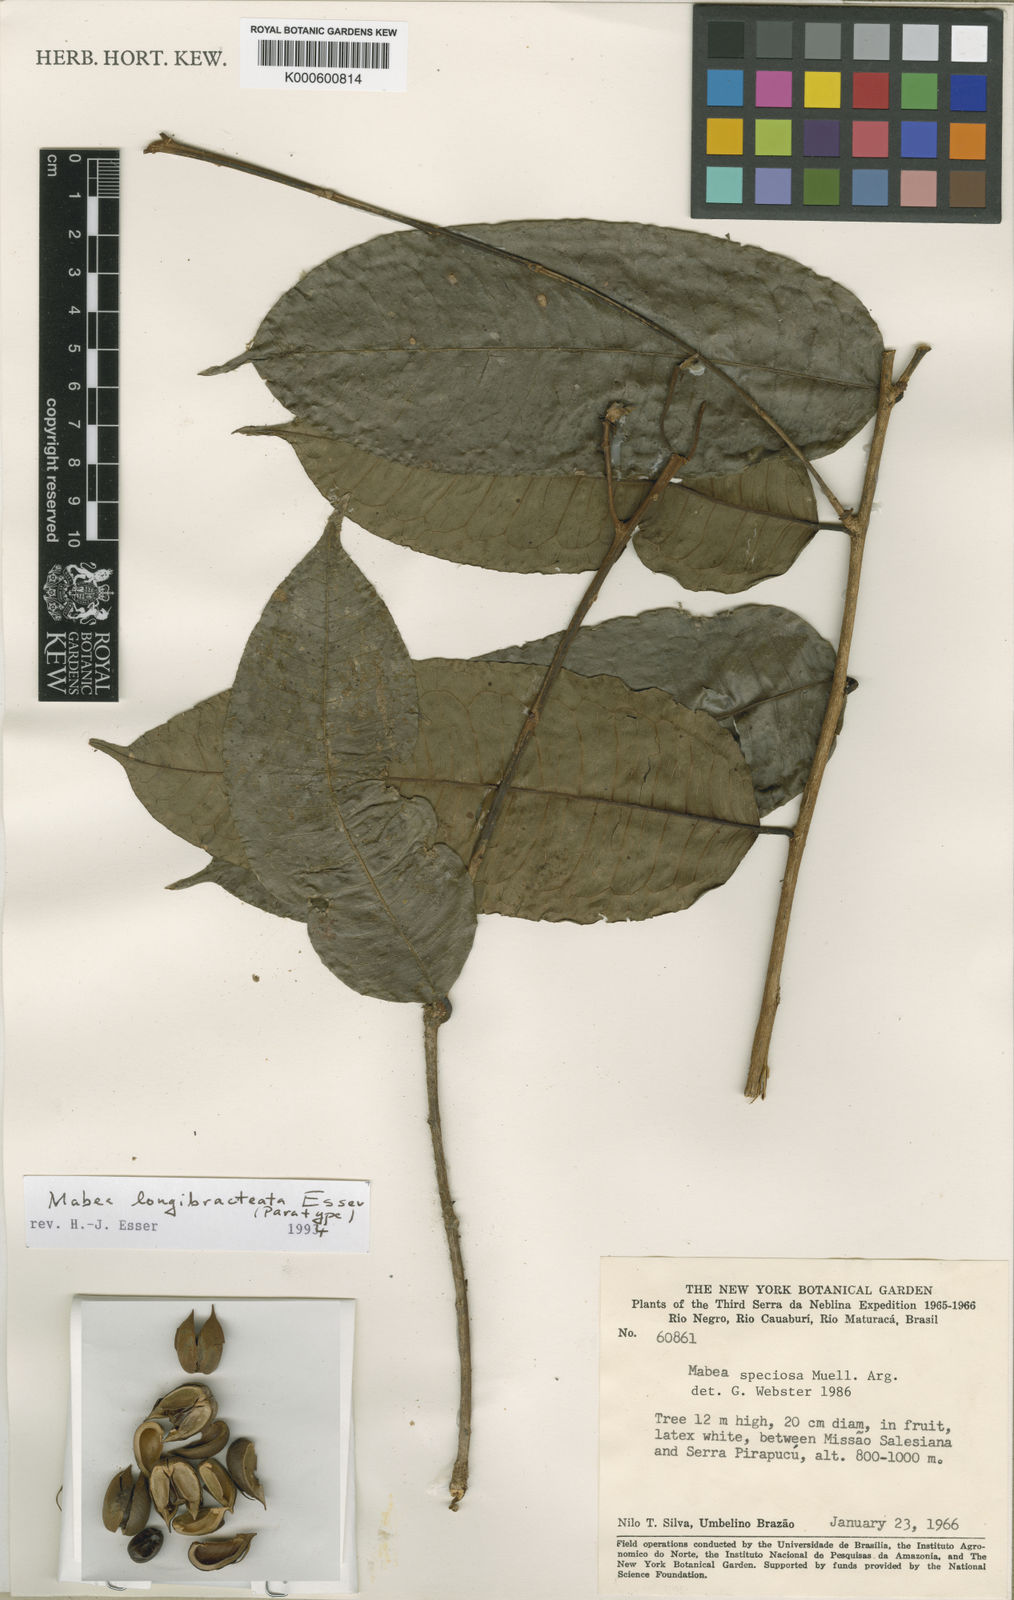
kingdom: Plantae
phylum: Tracheophyta
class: Magnoliopsida
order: Malpighiales
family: Euphorbiaceae
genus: Mabea
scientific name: Mabea longibracteata
